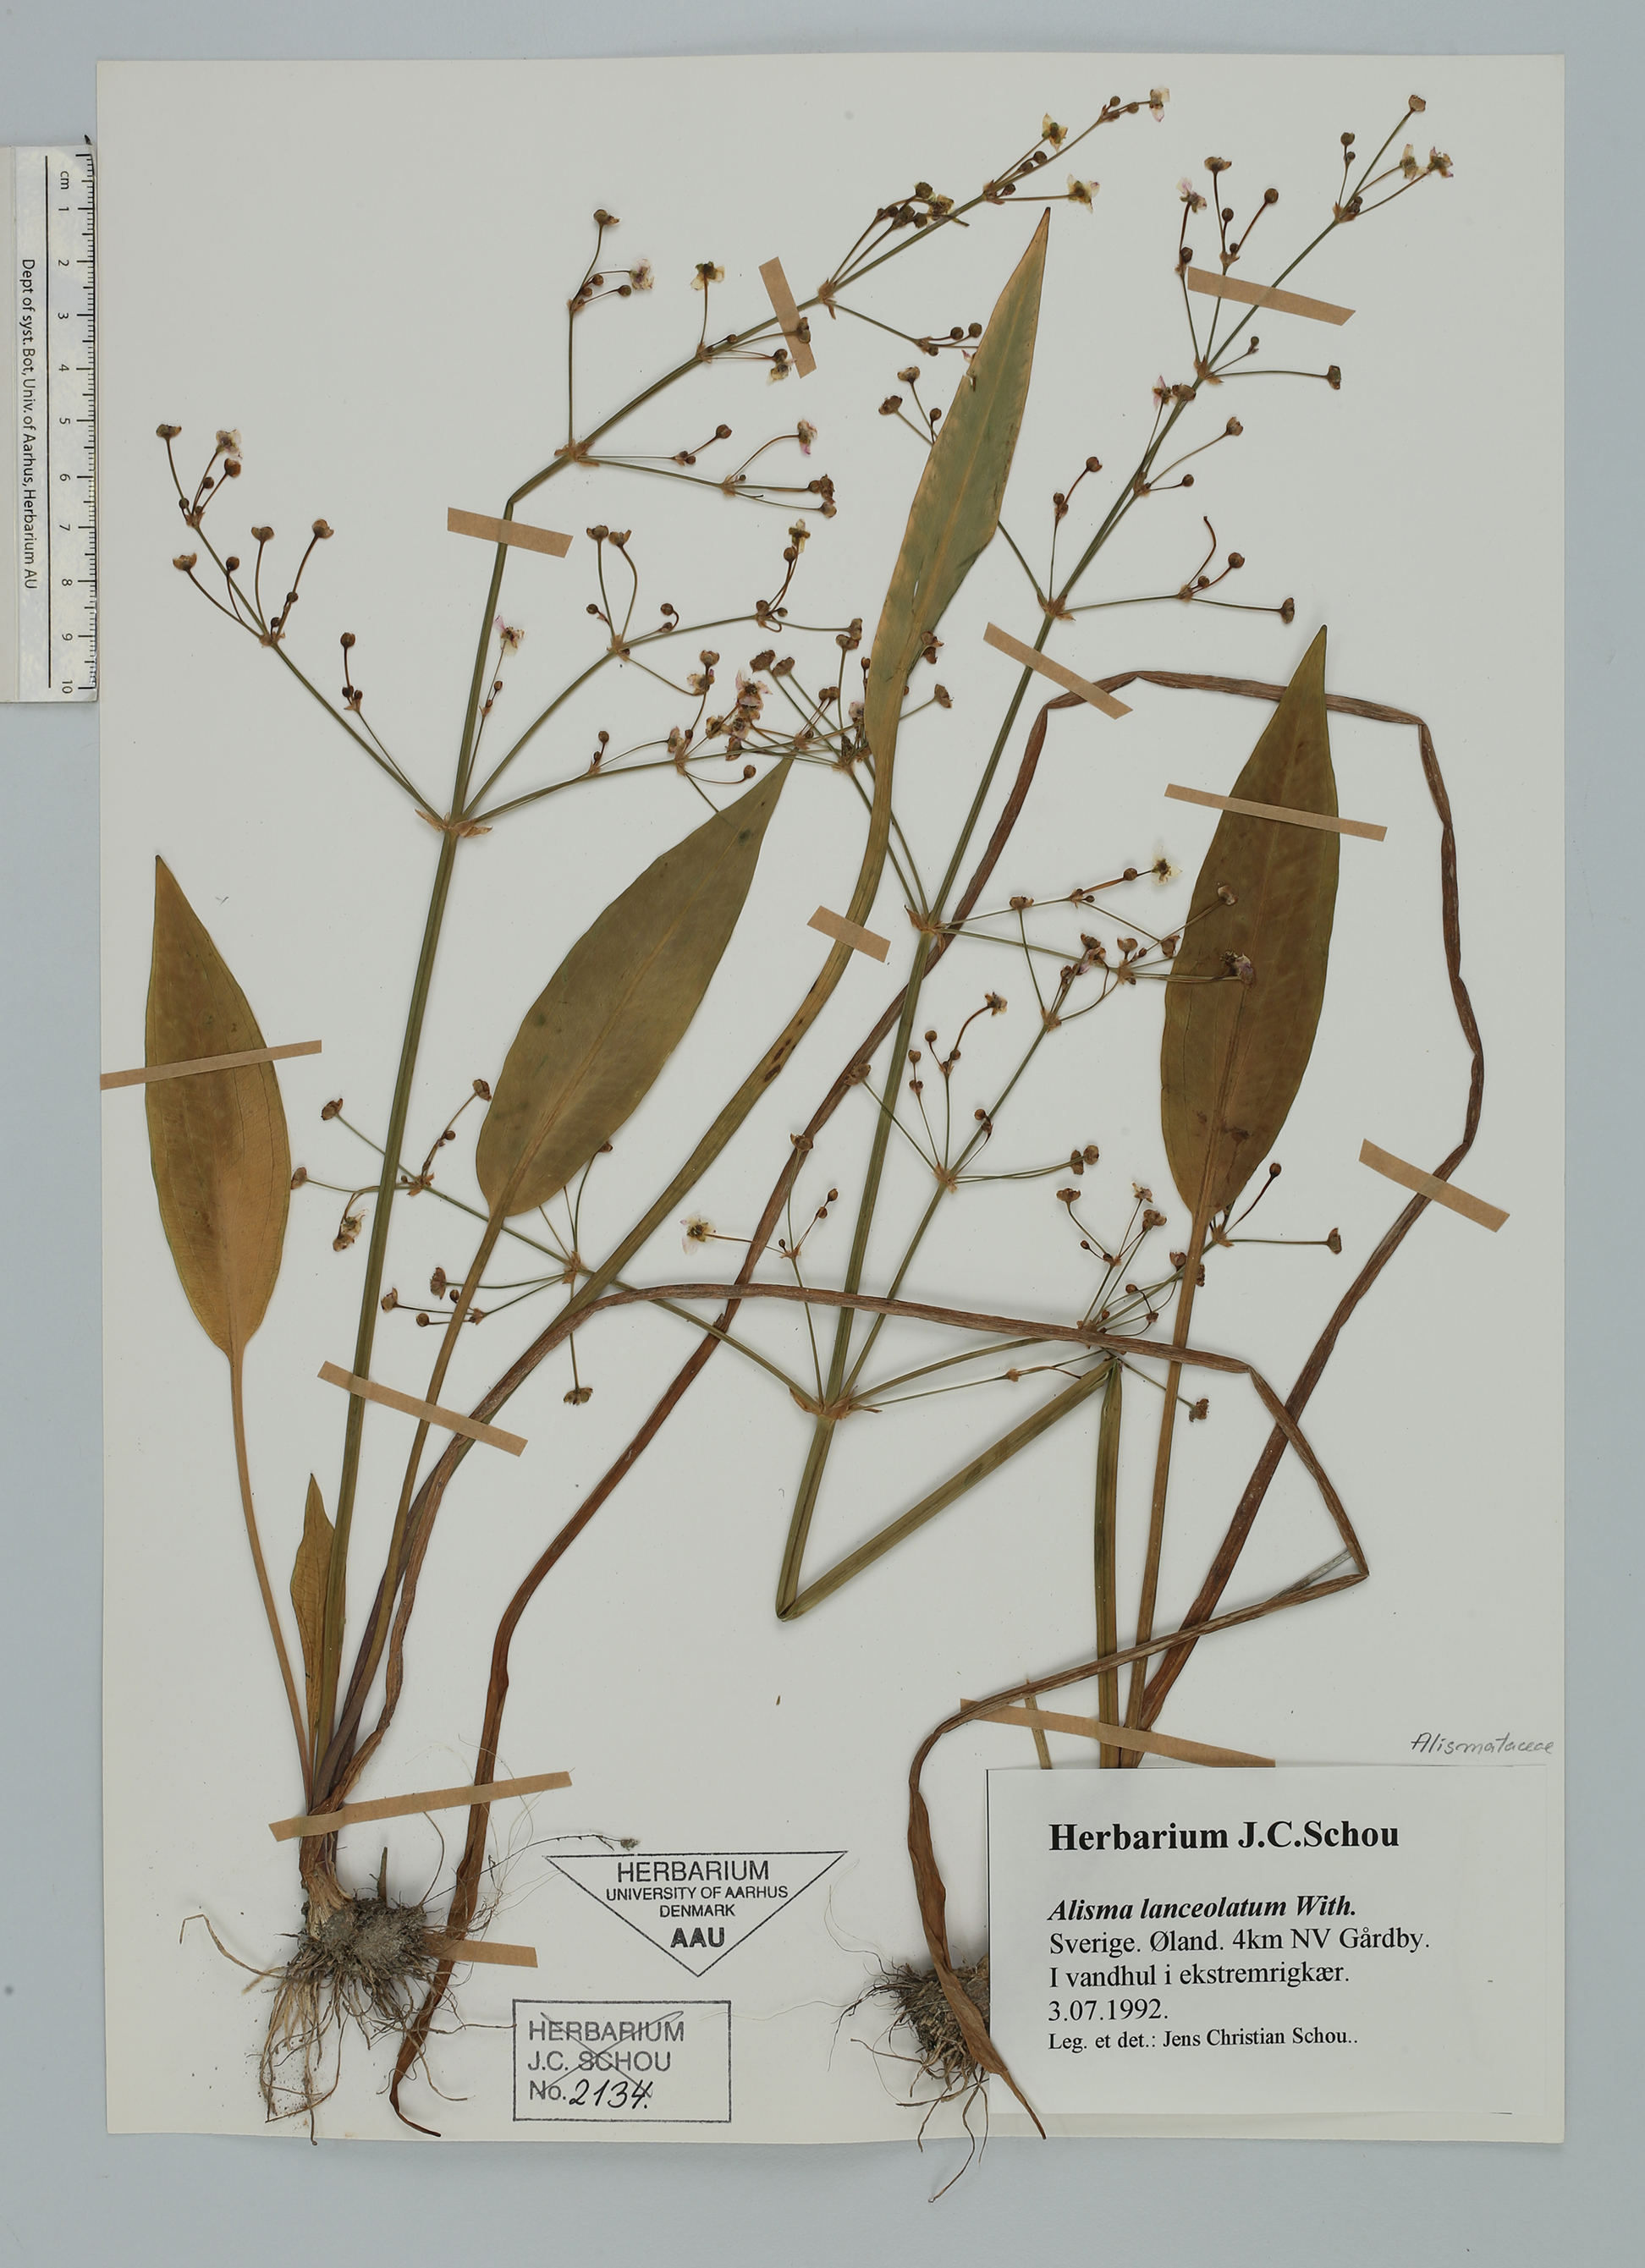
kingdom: Plantae
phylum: Tracheophyta
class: Liliopsida
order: Alismatales
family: Alismataceae
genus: Alisma
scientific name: Alisma lanceolatum
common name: Narrow-leaved water-plantain
